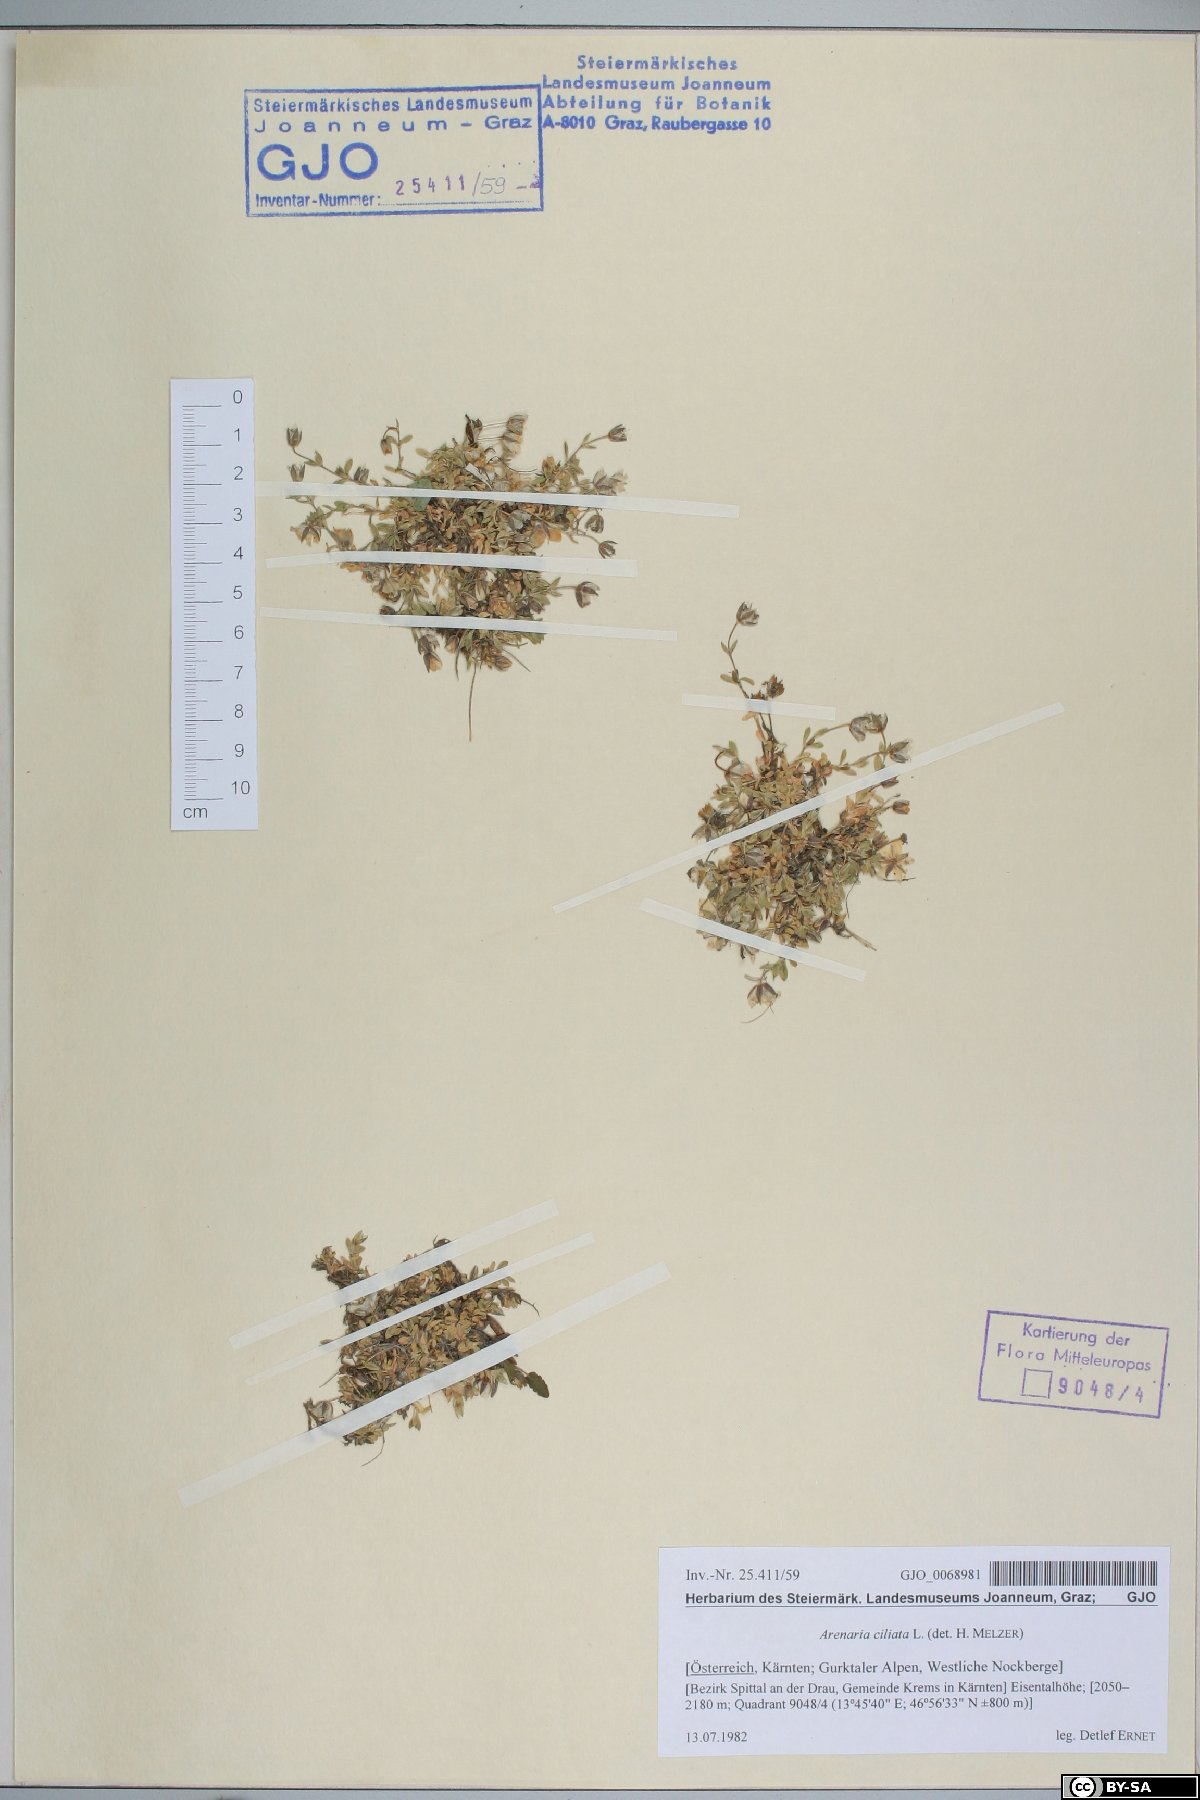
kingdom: Plantae
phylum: Tracheophyta
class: Magnoliopsida
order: Caryophyllales
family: Caryophyllaceae
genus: Arenaria
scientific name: Arenaria ciliata
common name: Fringed sandwort
